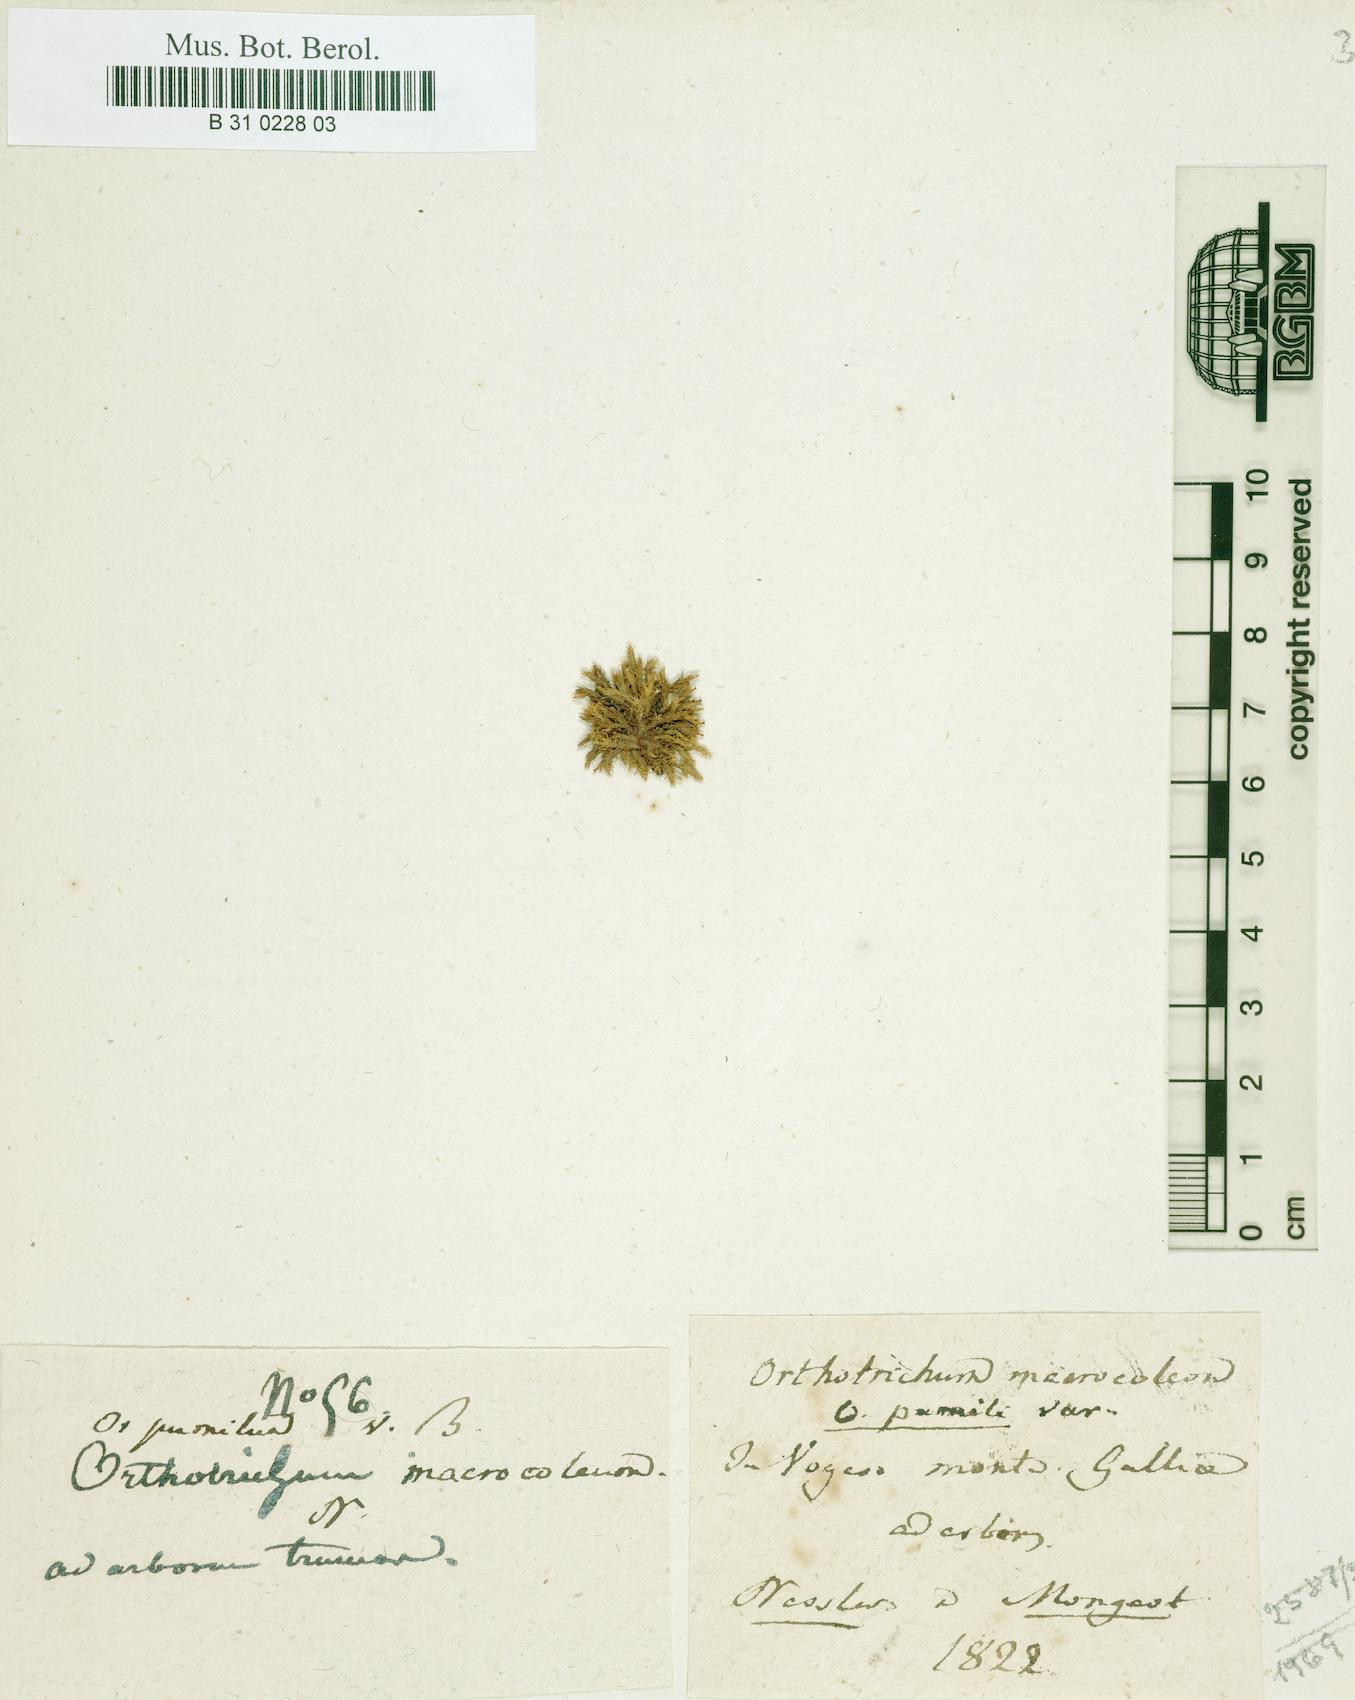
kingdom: Plantae
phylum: Bryophyta
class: Bryopsida
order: Orthotrichales
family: Orthotrichaceae
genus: Orthotrichum
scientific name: Orthotrichum pumilum
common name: Dwarf bristle moss
